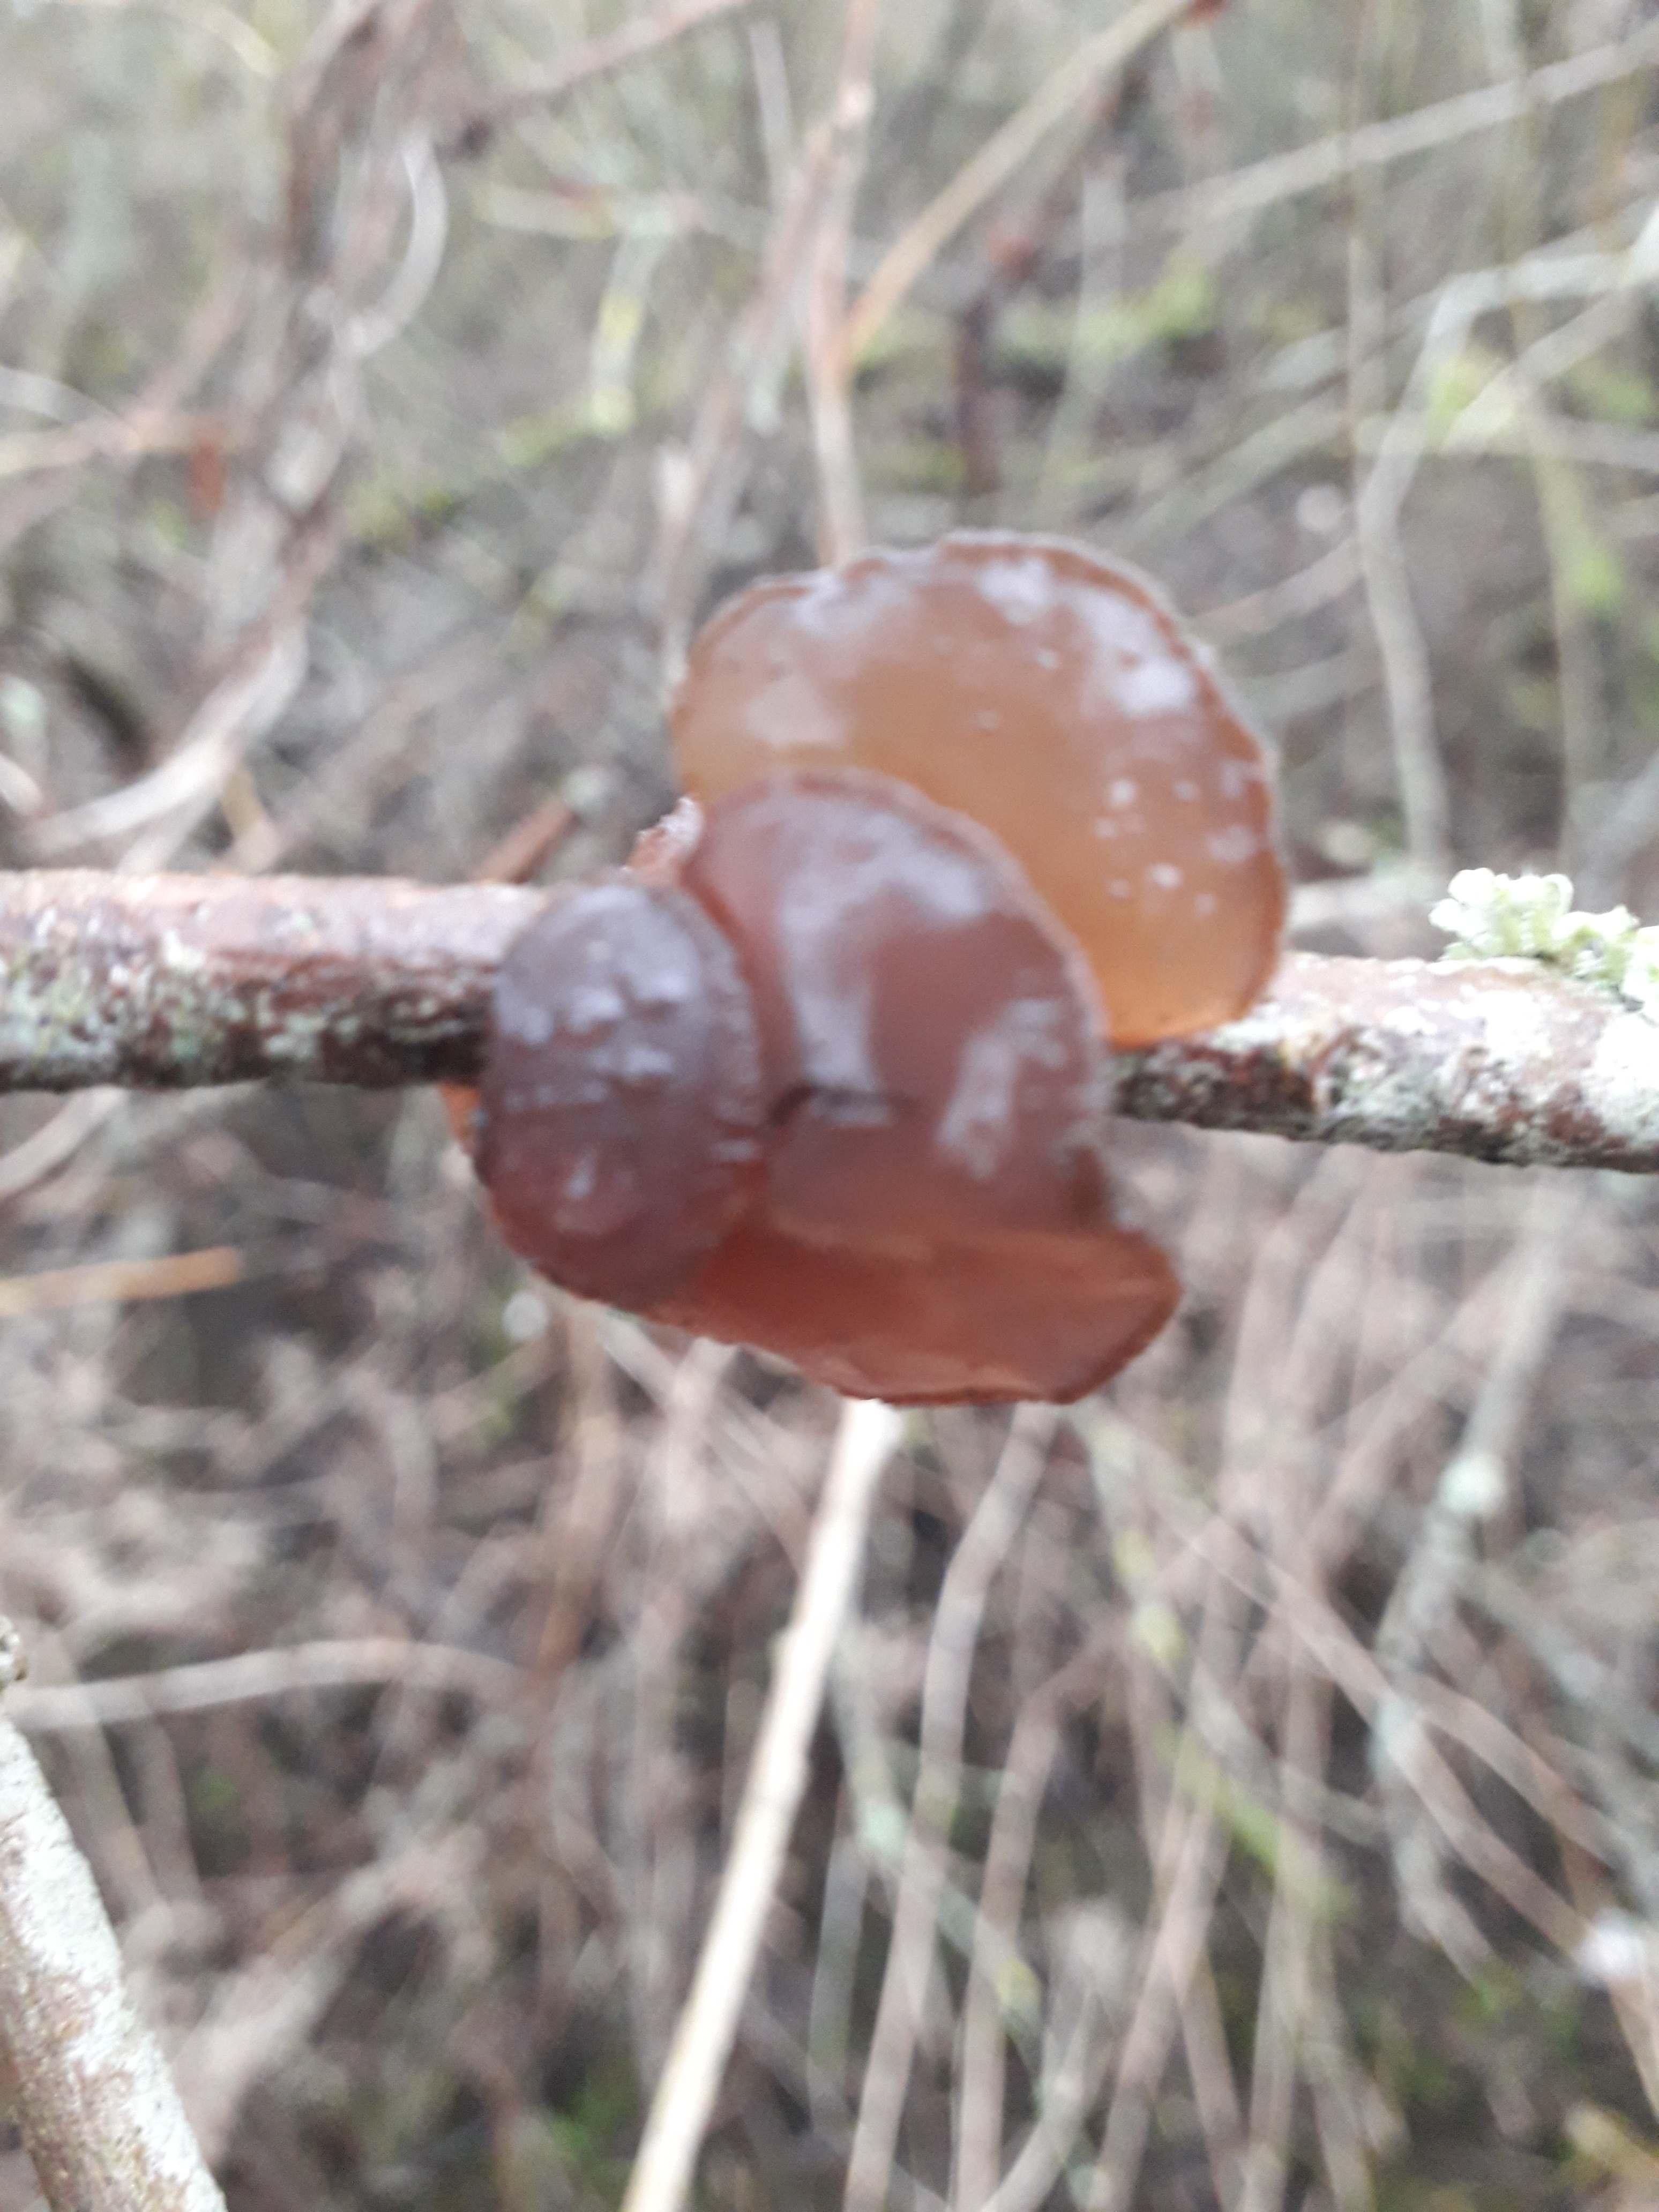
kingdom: Fungi
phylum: Basidiomycota
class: Agaricomycetes
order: Auriculariales
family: Auriculariaceae
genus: Exidia
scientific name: Exidia recisa
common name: pile-bævretop
